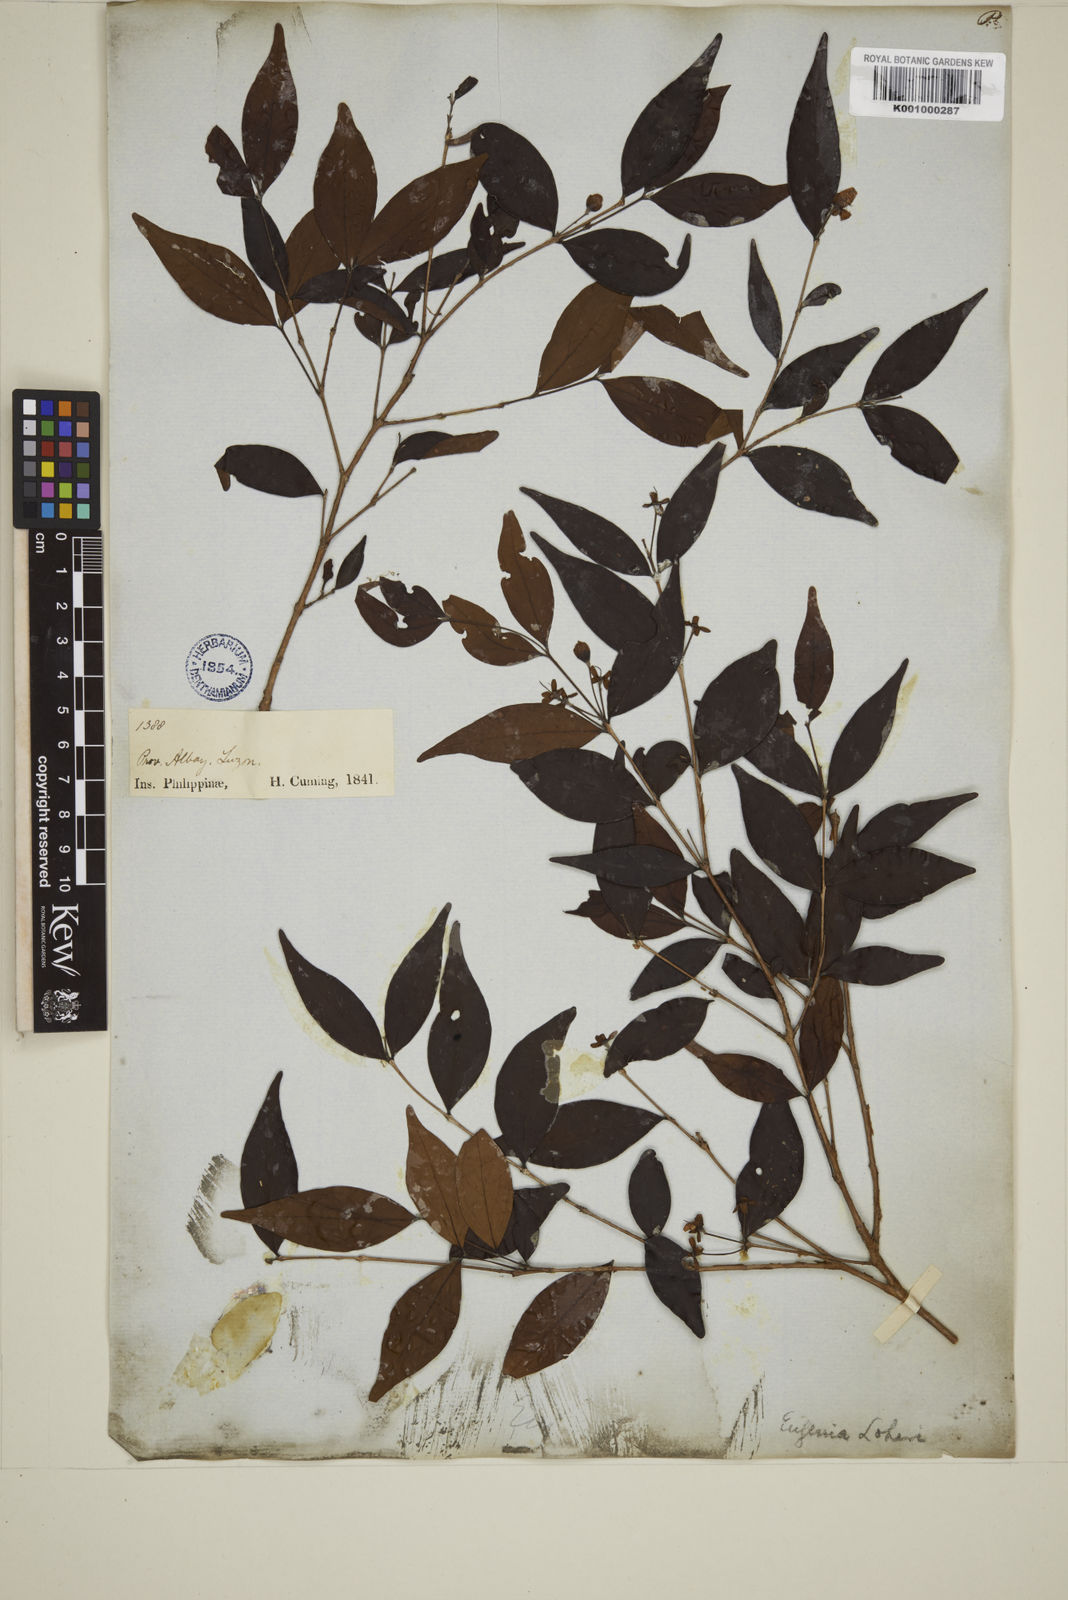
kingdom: Plantae
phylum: Tracheophyta
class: Magnoliopsida
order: Myrtales
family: Myrtaceae
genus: Eugenia
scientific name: Eugenia loheri
